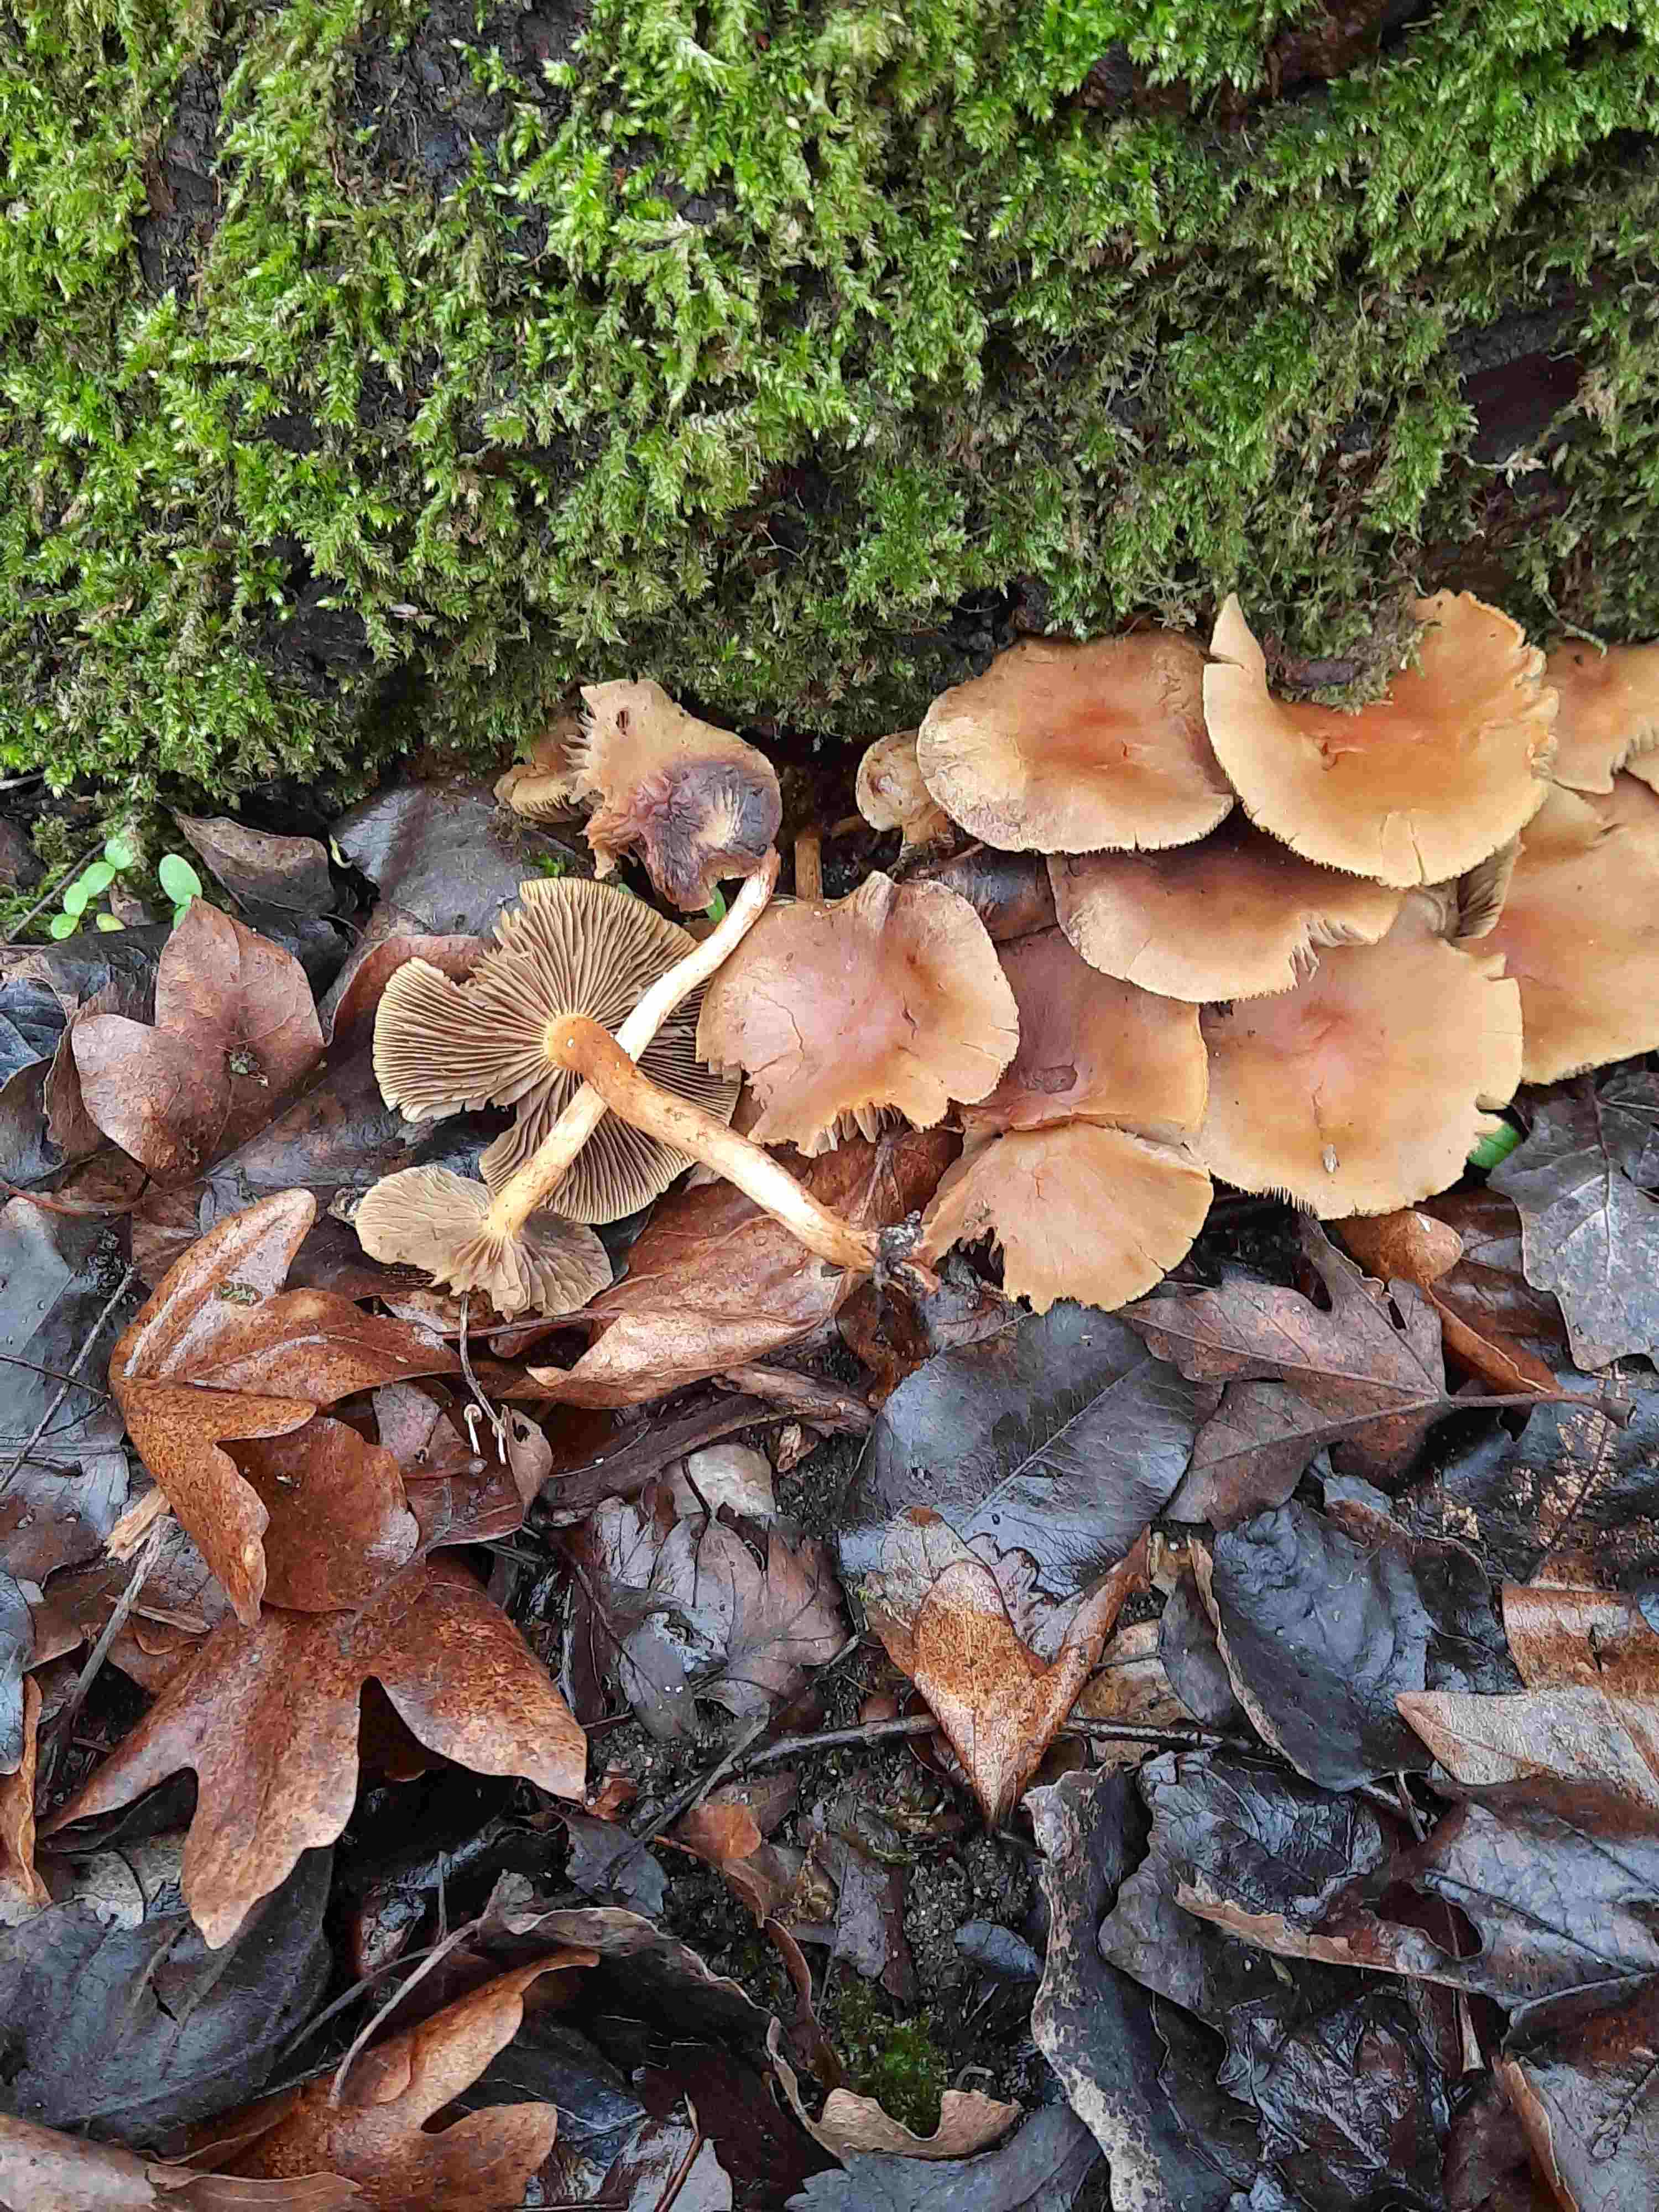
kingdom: Fungi
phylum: Basidiomycota
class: Agaricomycetes
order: Agaricales
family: Strophariaceae
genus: Hypholoma
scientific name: Hypholoma fasciculare
